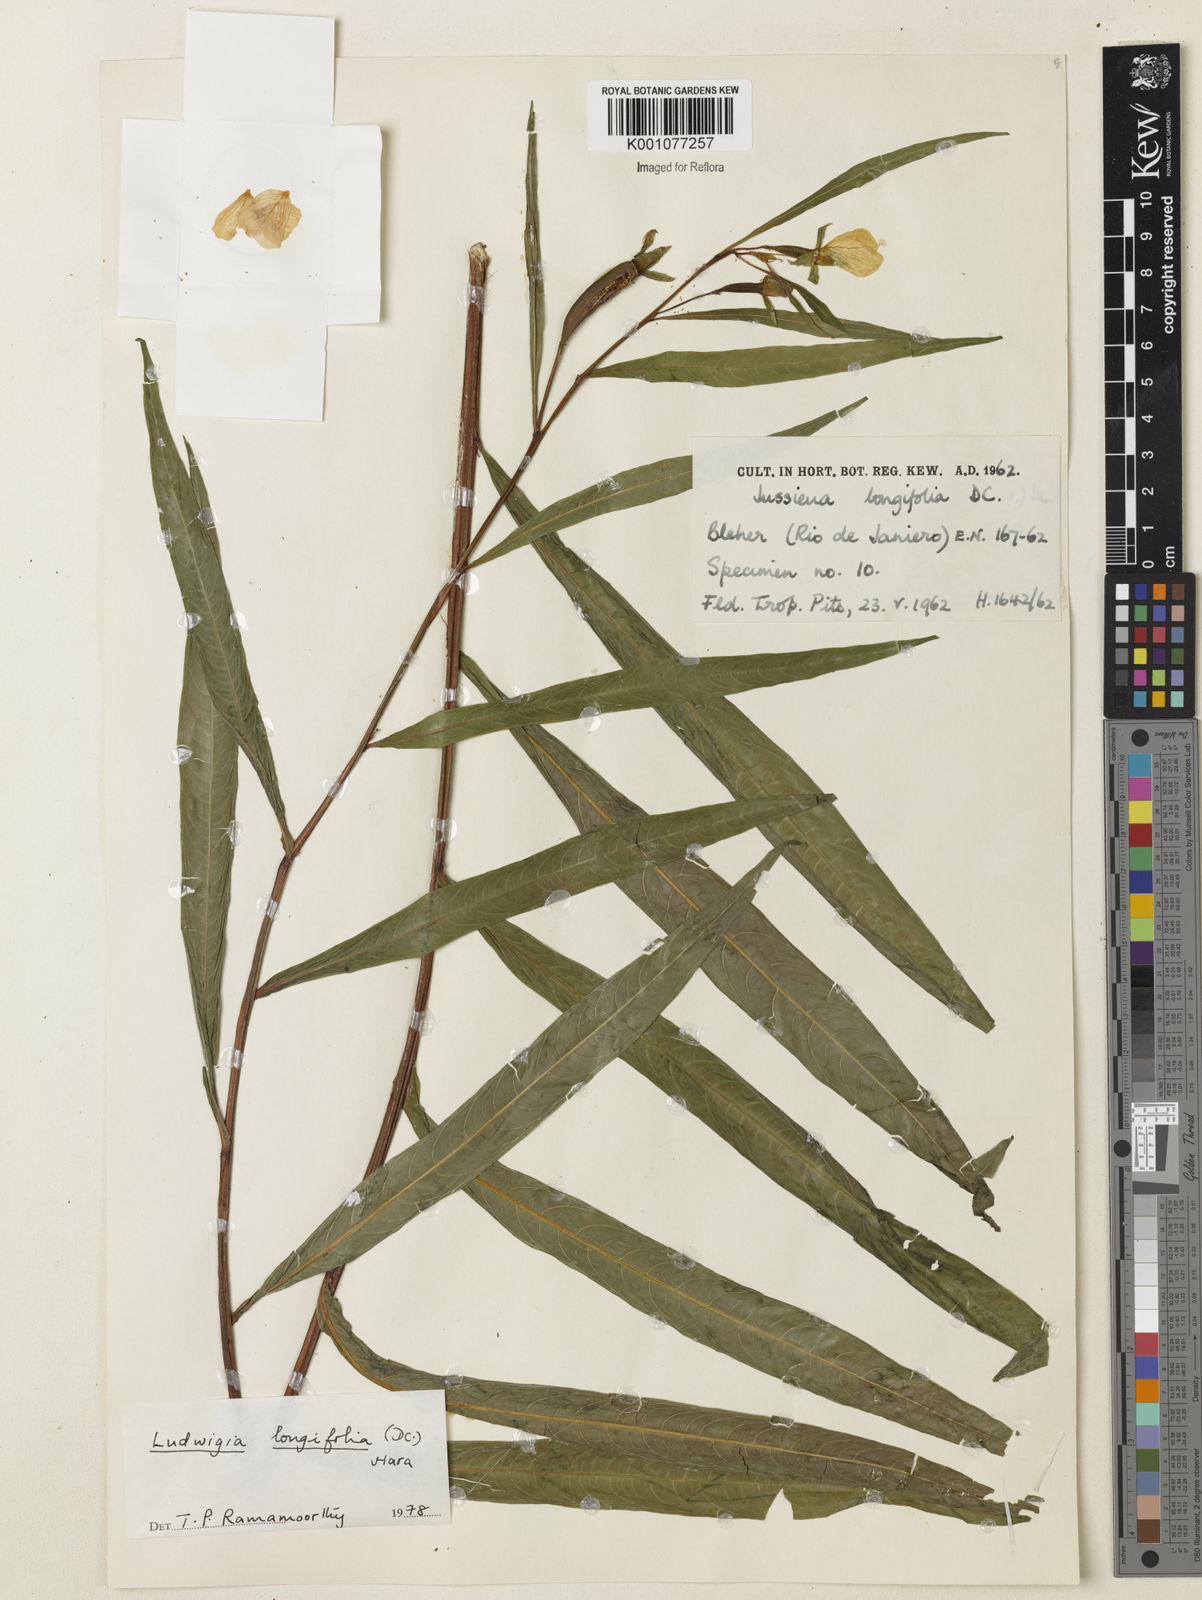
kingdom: Plantae
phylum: Tracheophyta
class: Magnoliopsida
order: Myrtales
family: Onagraceae
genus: Ludwigia
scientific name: Ludwigia longifolia
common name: Longleaf primrose-willow
